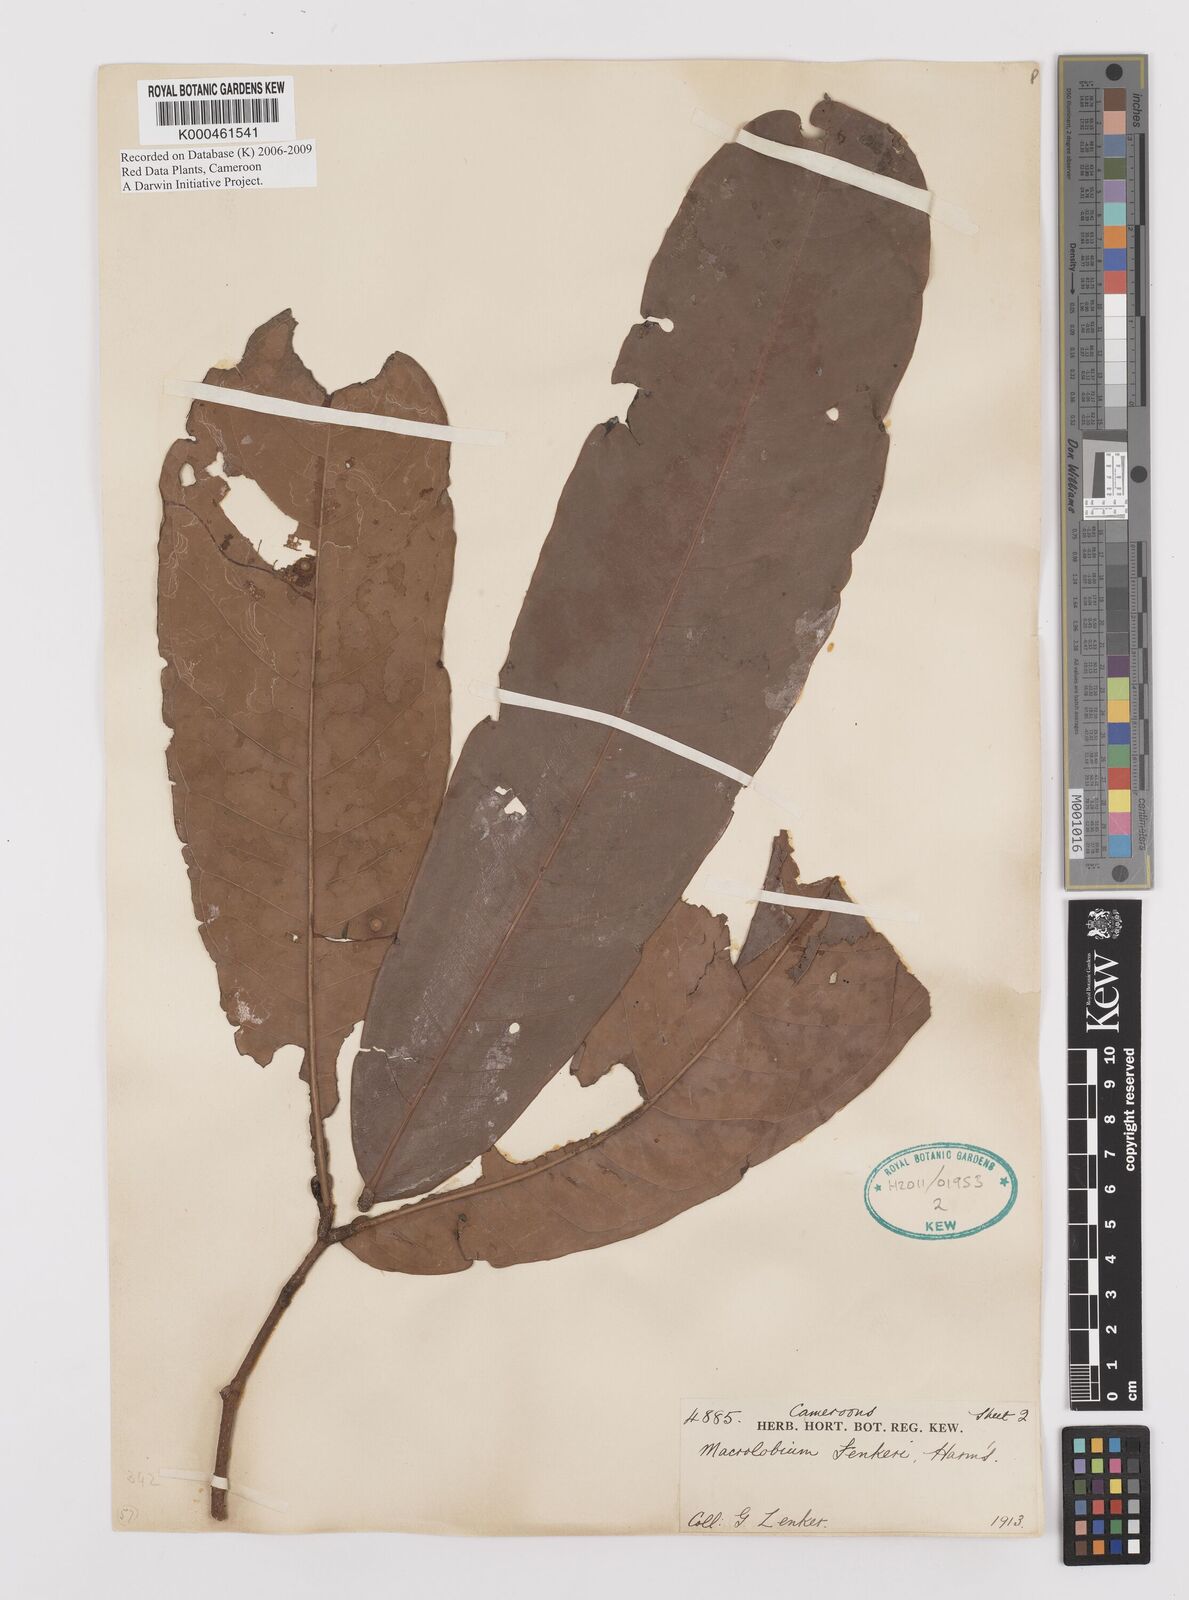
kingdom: Plantae
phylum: Tracheophyta
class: Magnoliopsida
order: Fabales
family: Fabaceae
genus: Gilbertiodendron
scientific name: Gilbertiodendron zenkeri
